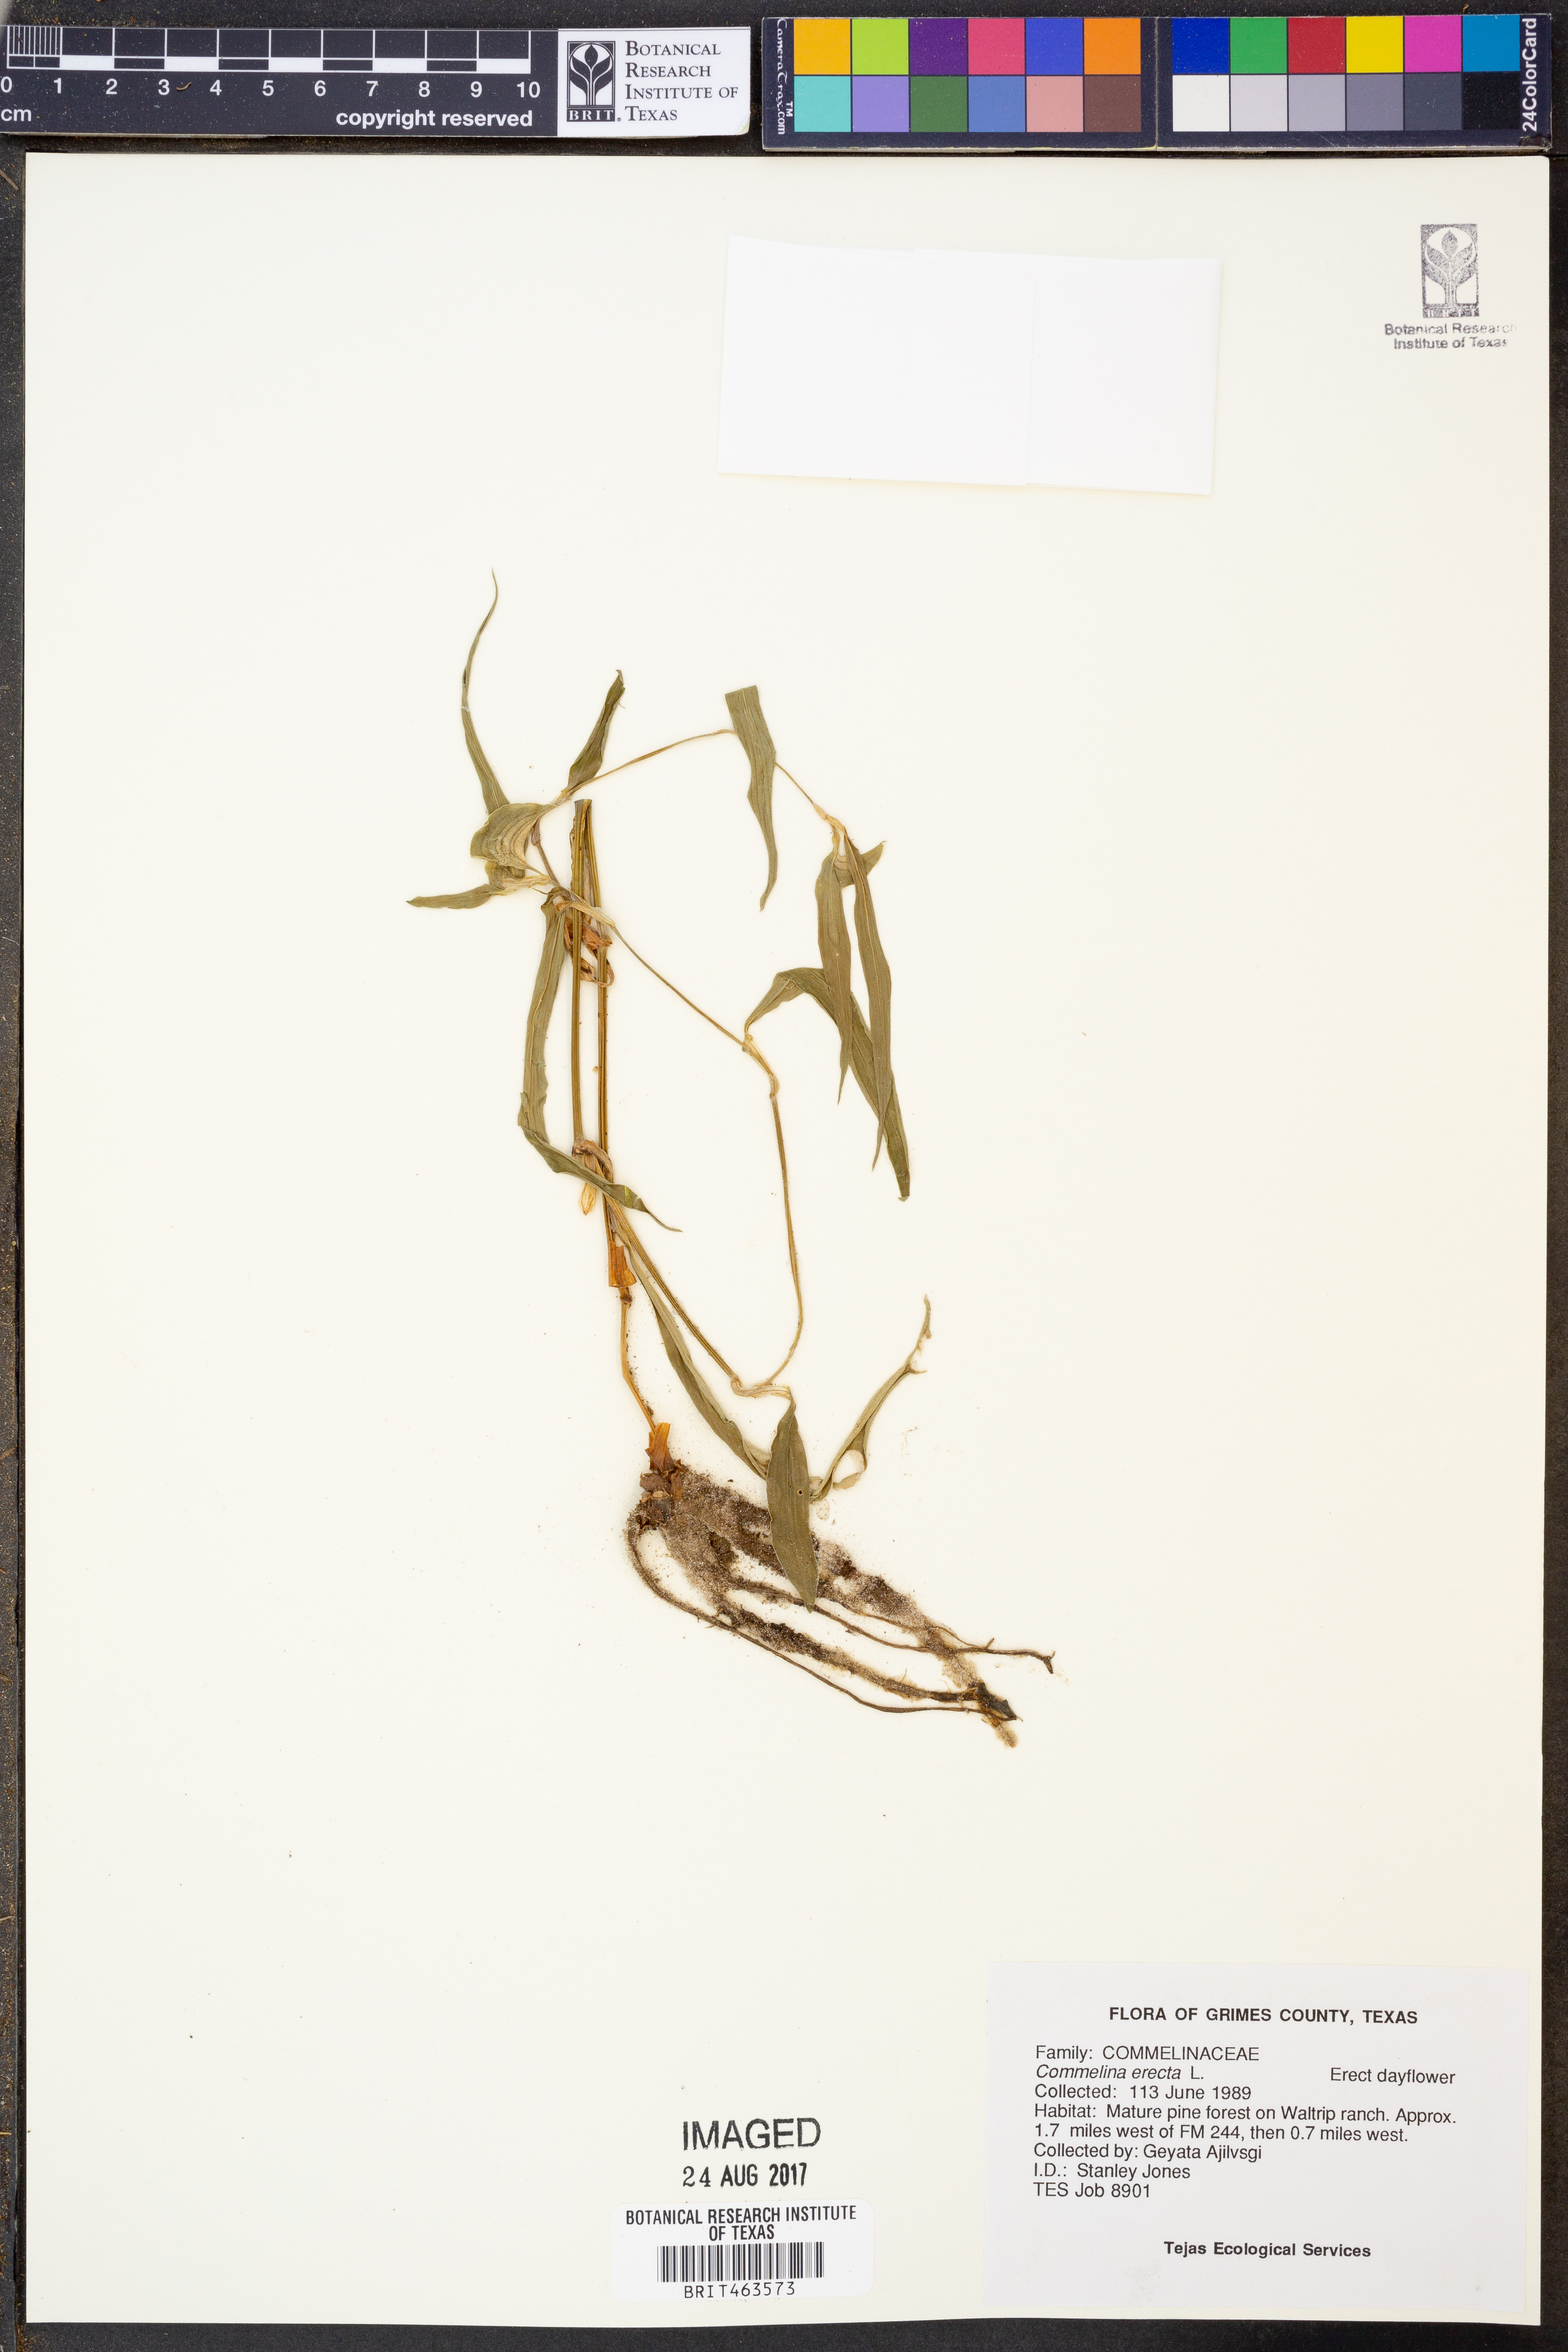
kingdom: Plantae
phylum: Tracheophyta
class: Liliopsida
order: Commelinales
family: Commelinaceae
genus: Commelina
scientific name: Commelina erecta
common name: Blousel blommetjie
